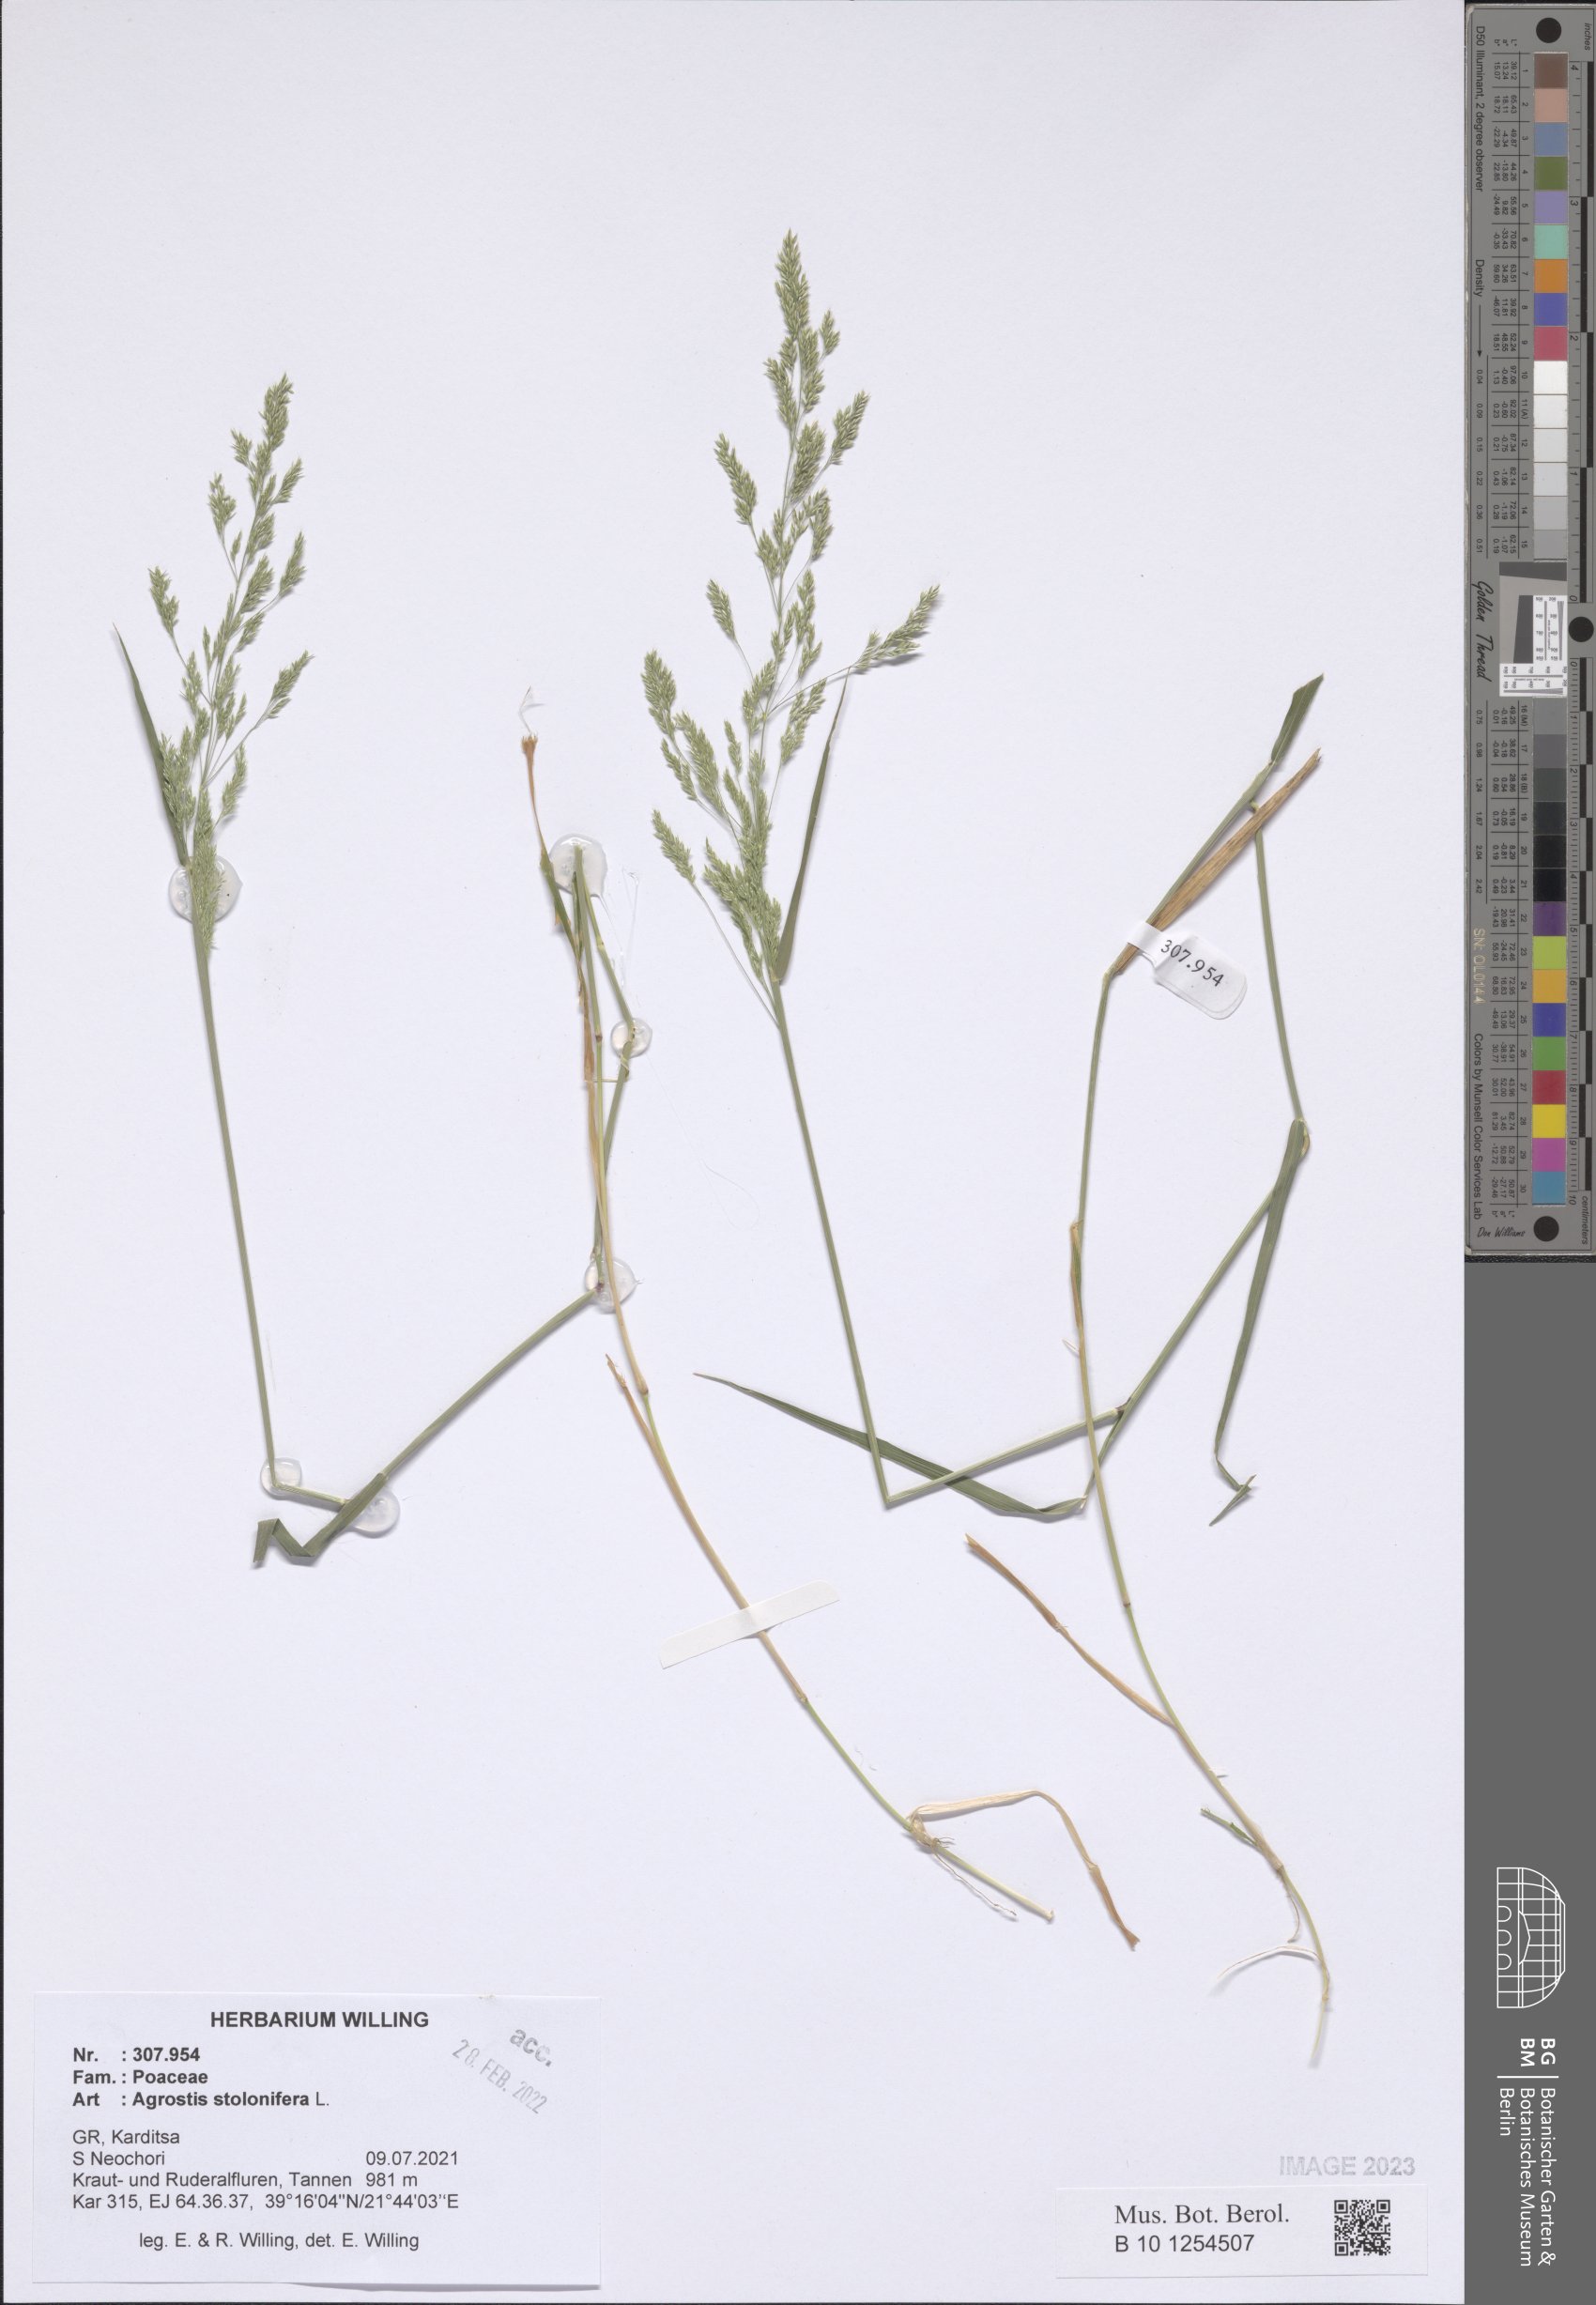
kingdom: Plantae
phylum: Tracheophyta
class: Liliopsida
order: Poales
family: Poaceae
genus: Agrostis
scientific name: Agrostis stolonifera
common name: Creeping bentgrass
